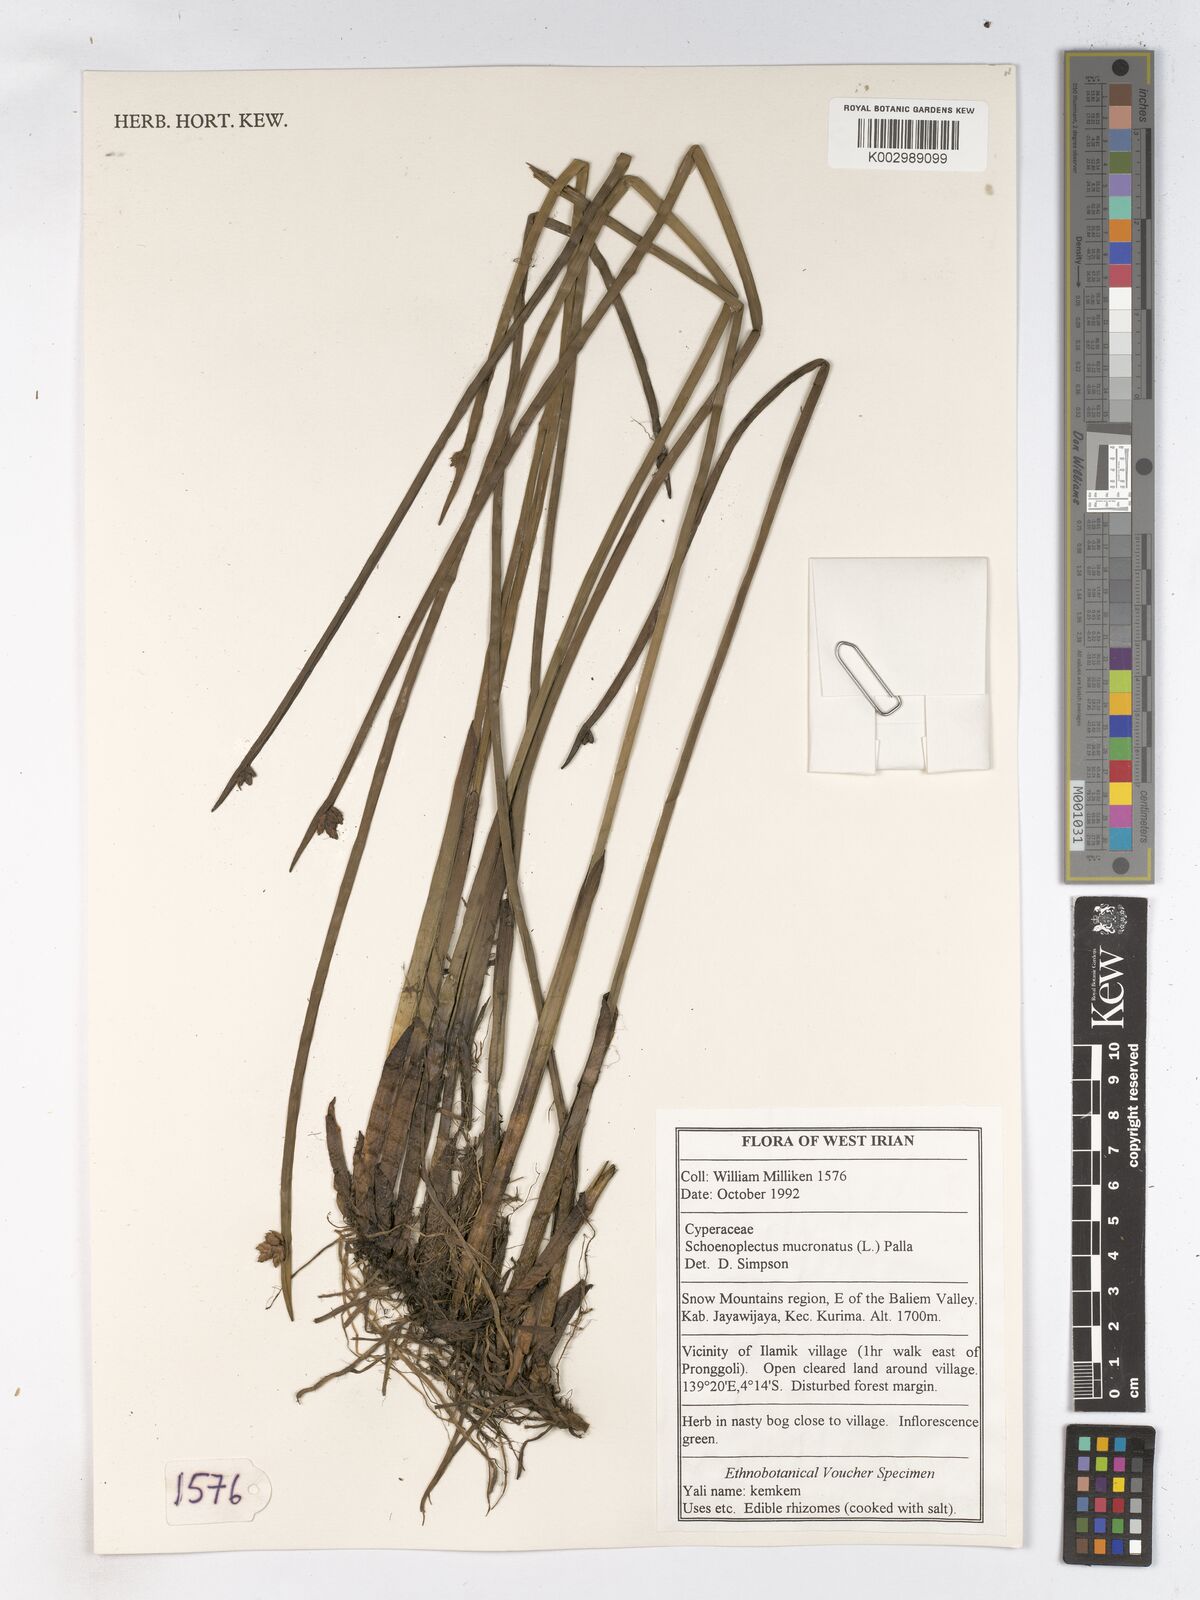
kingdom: Plantae
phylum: Tracheophyta
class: Liliopsida
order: Poales
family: Cyperaceae
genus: Schoenoplectiella
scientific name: Schoenoplectiella mucronata
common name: Bog bulrush
